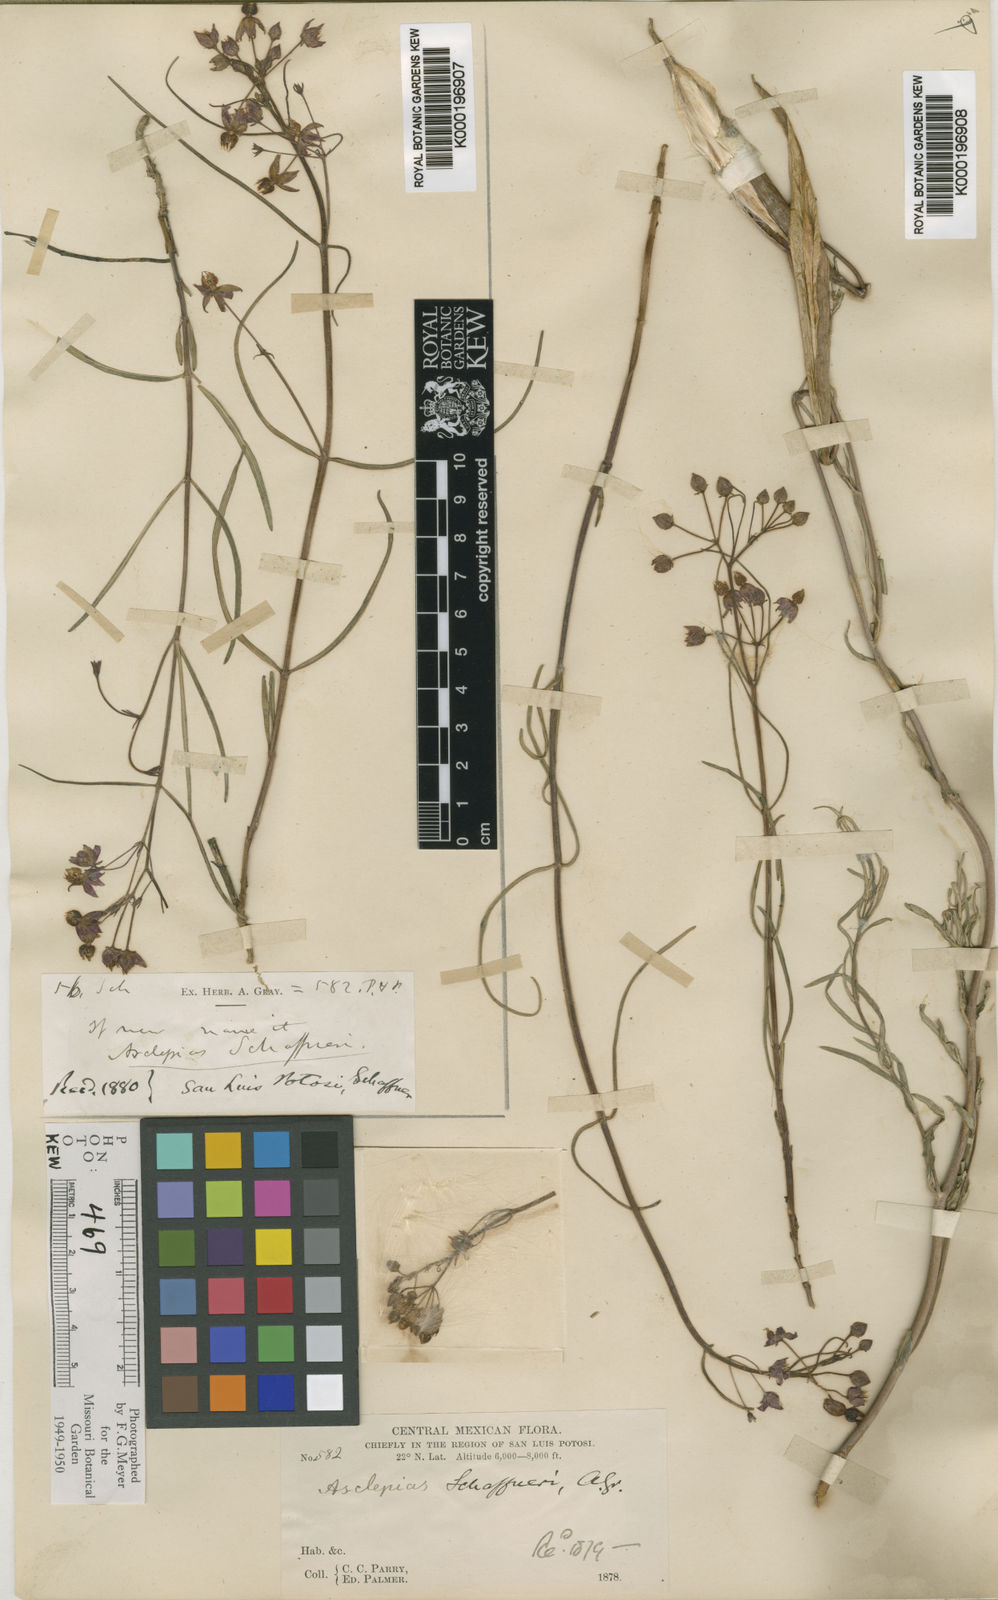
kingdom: Plantae
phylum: Tracheophyta
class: Magnoliopsida
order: Gentianales
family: Apocynaceae
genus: Asclepias
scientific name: Asclepias schaffneri
